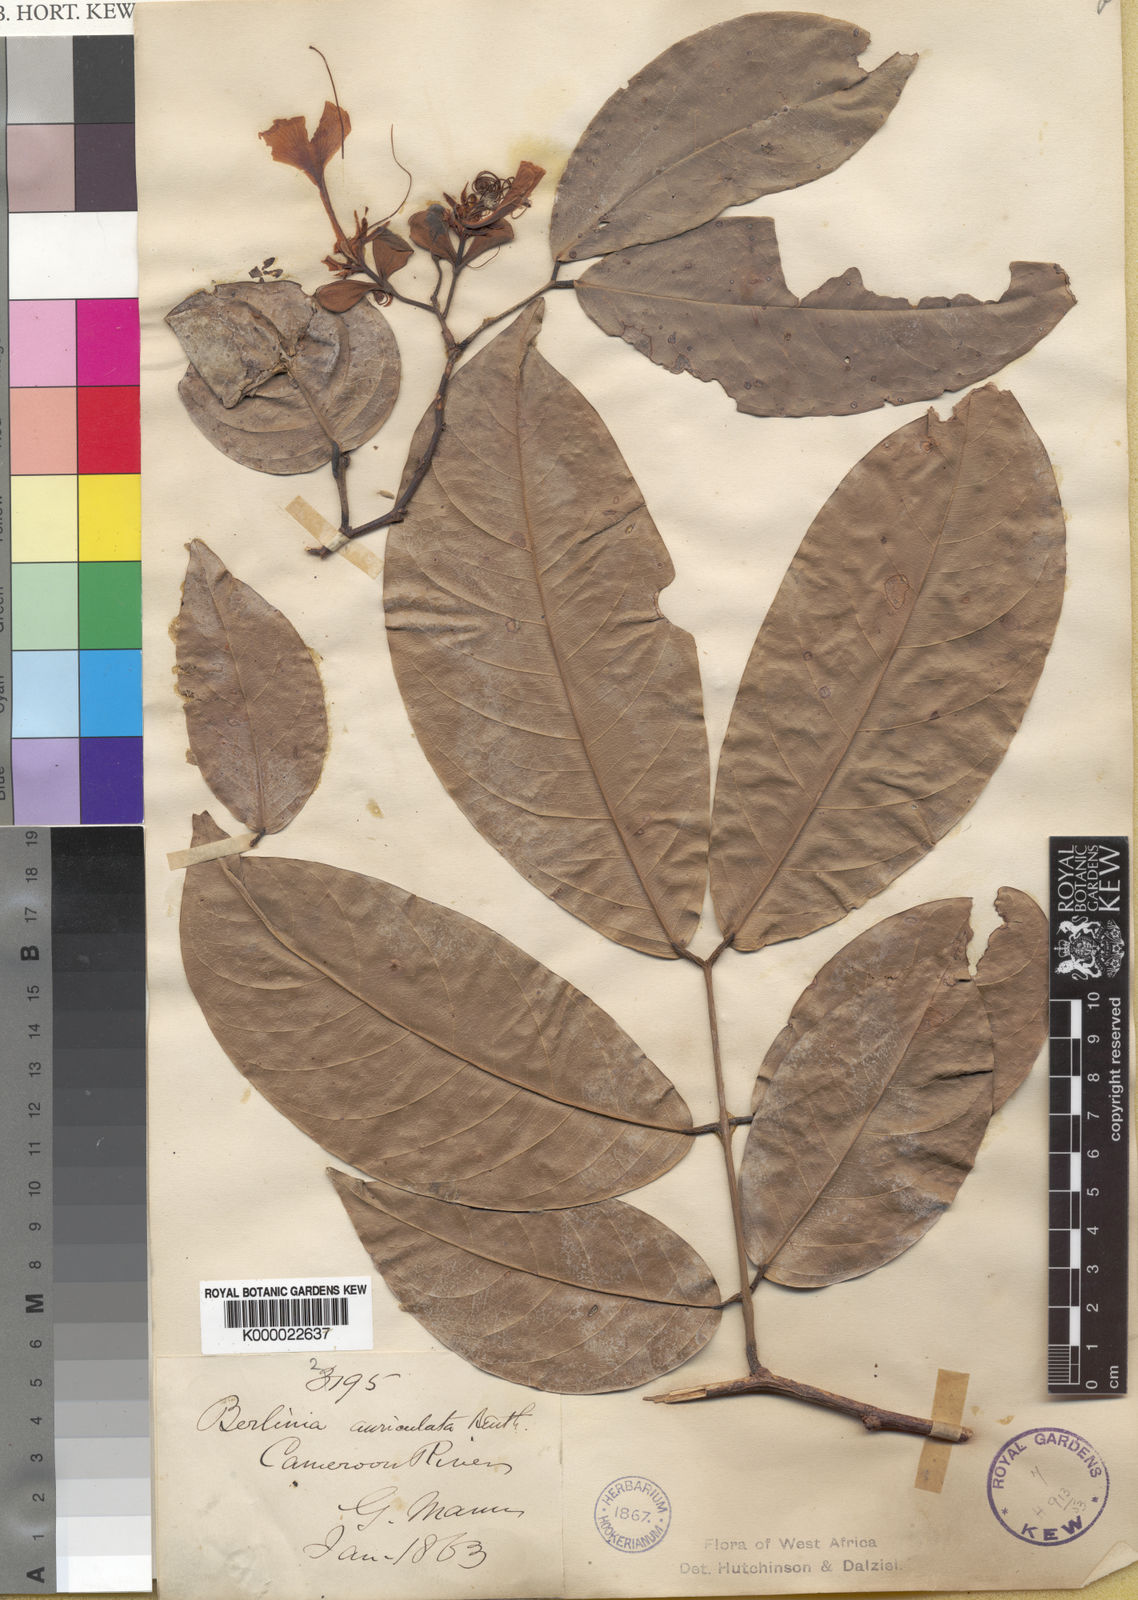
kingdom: Plantae
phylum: Tracheophyta
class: Magnoliopsida
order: Fabales
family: Fabaceae
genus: Berlinia
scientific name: Berlinia auriculata
